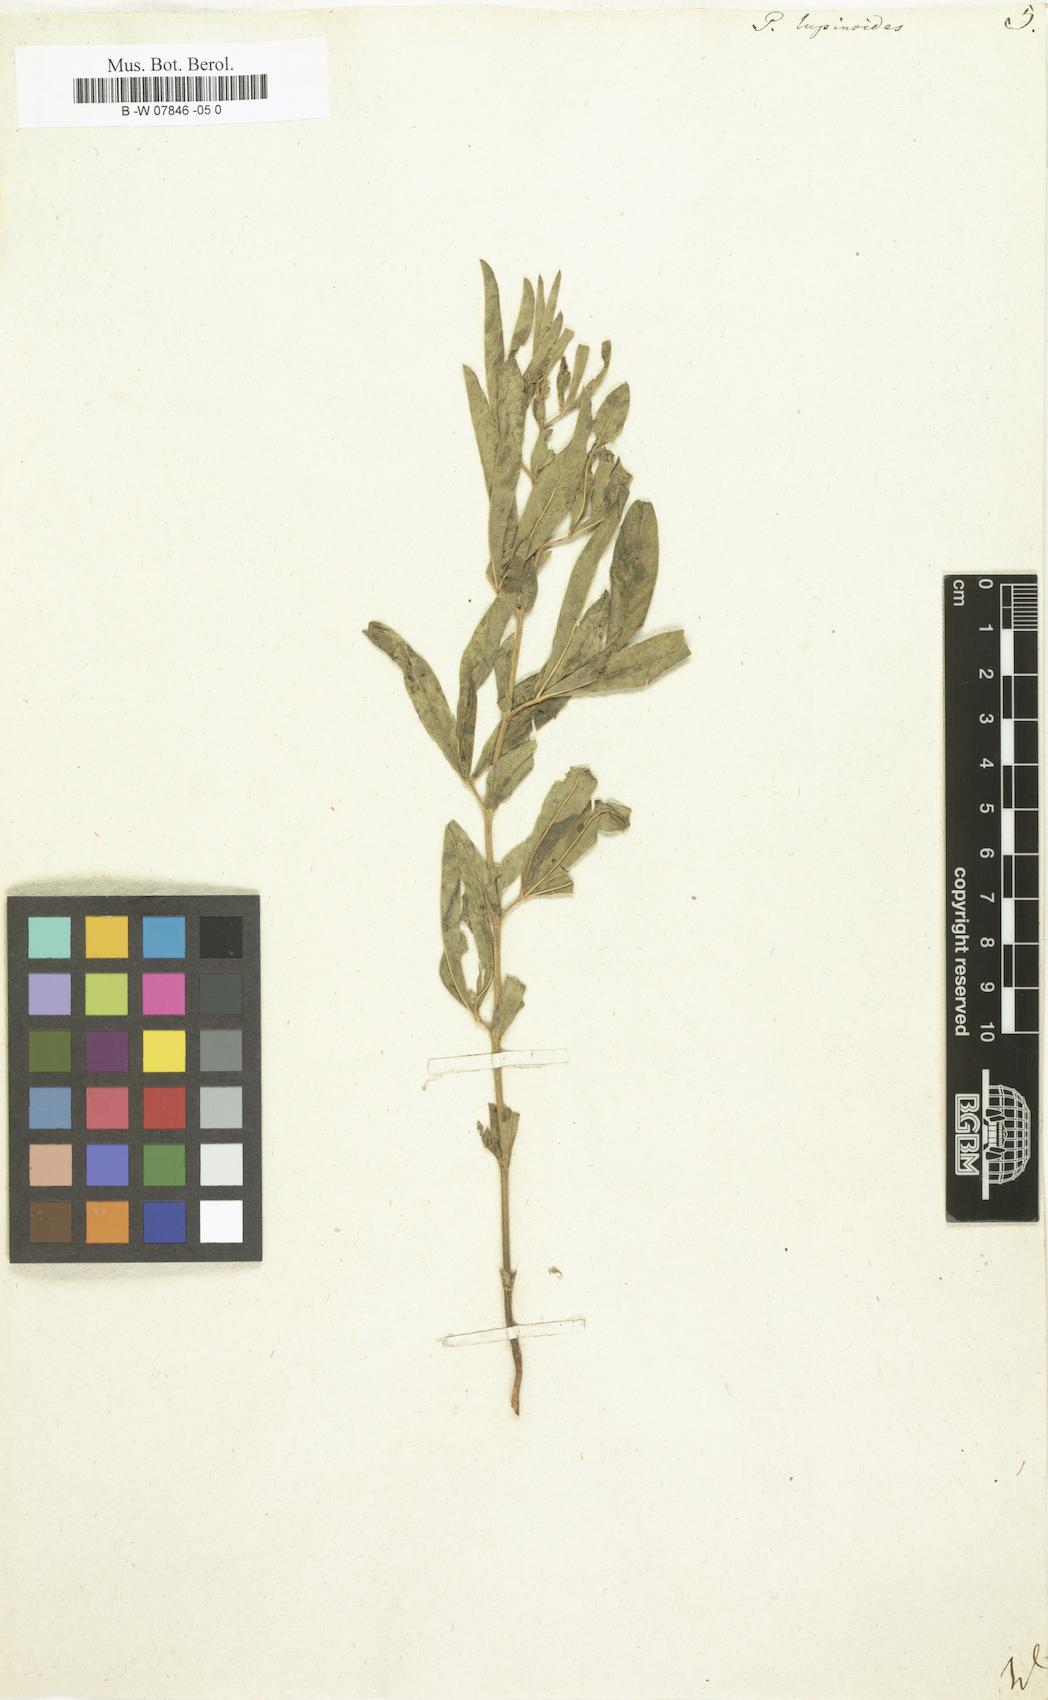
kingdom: Plantae
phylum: Tracheophyta
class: Magnoliopsida
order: Fabales
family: Fabaceae
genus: Thermopsis
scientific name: Thermopsis lanceolata
